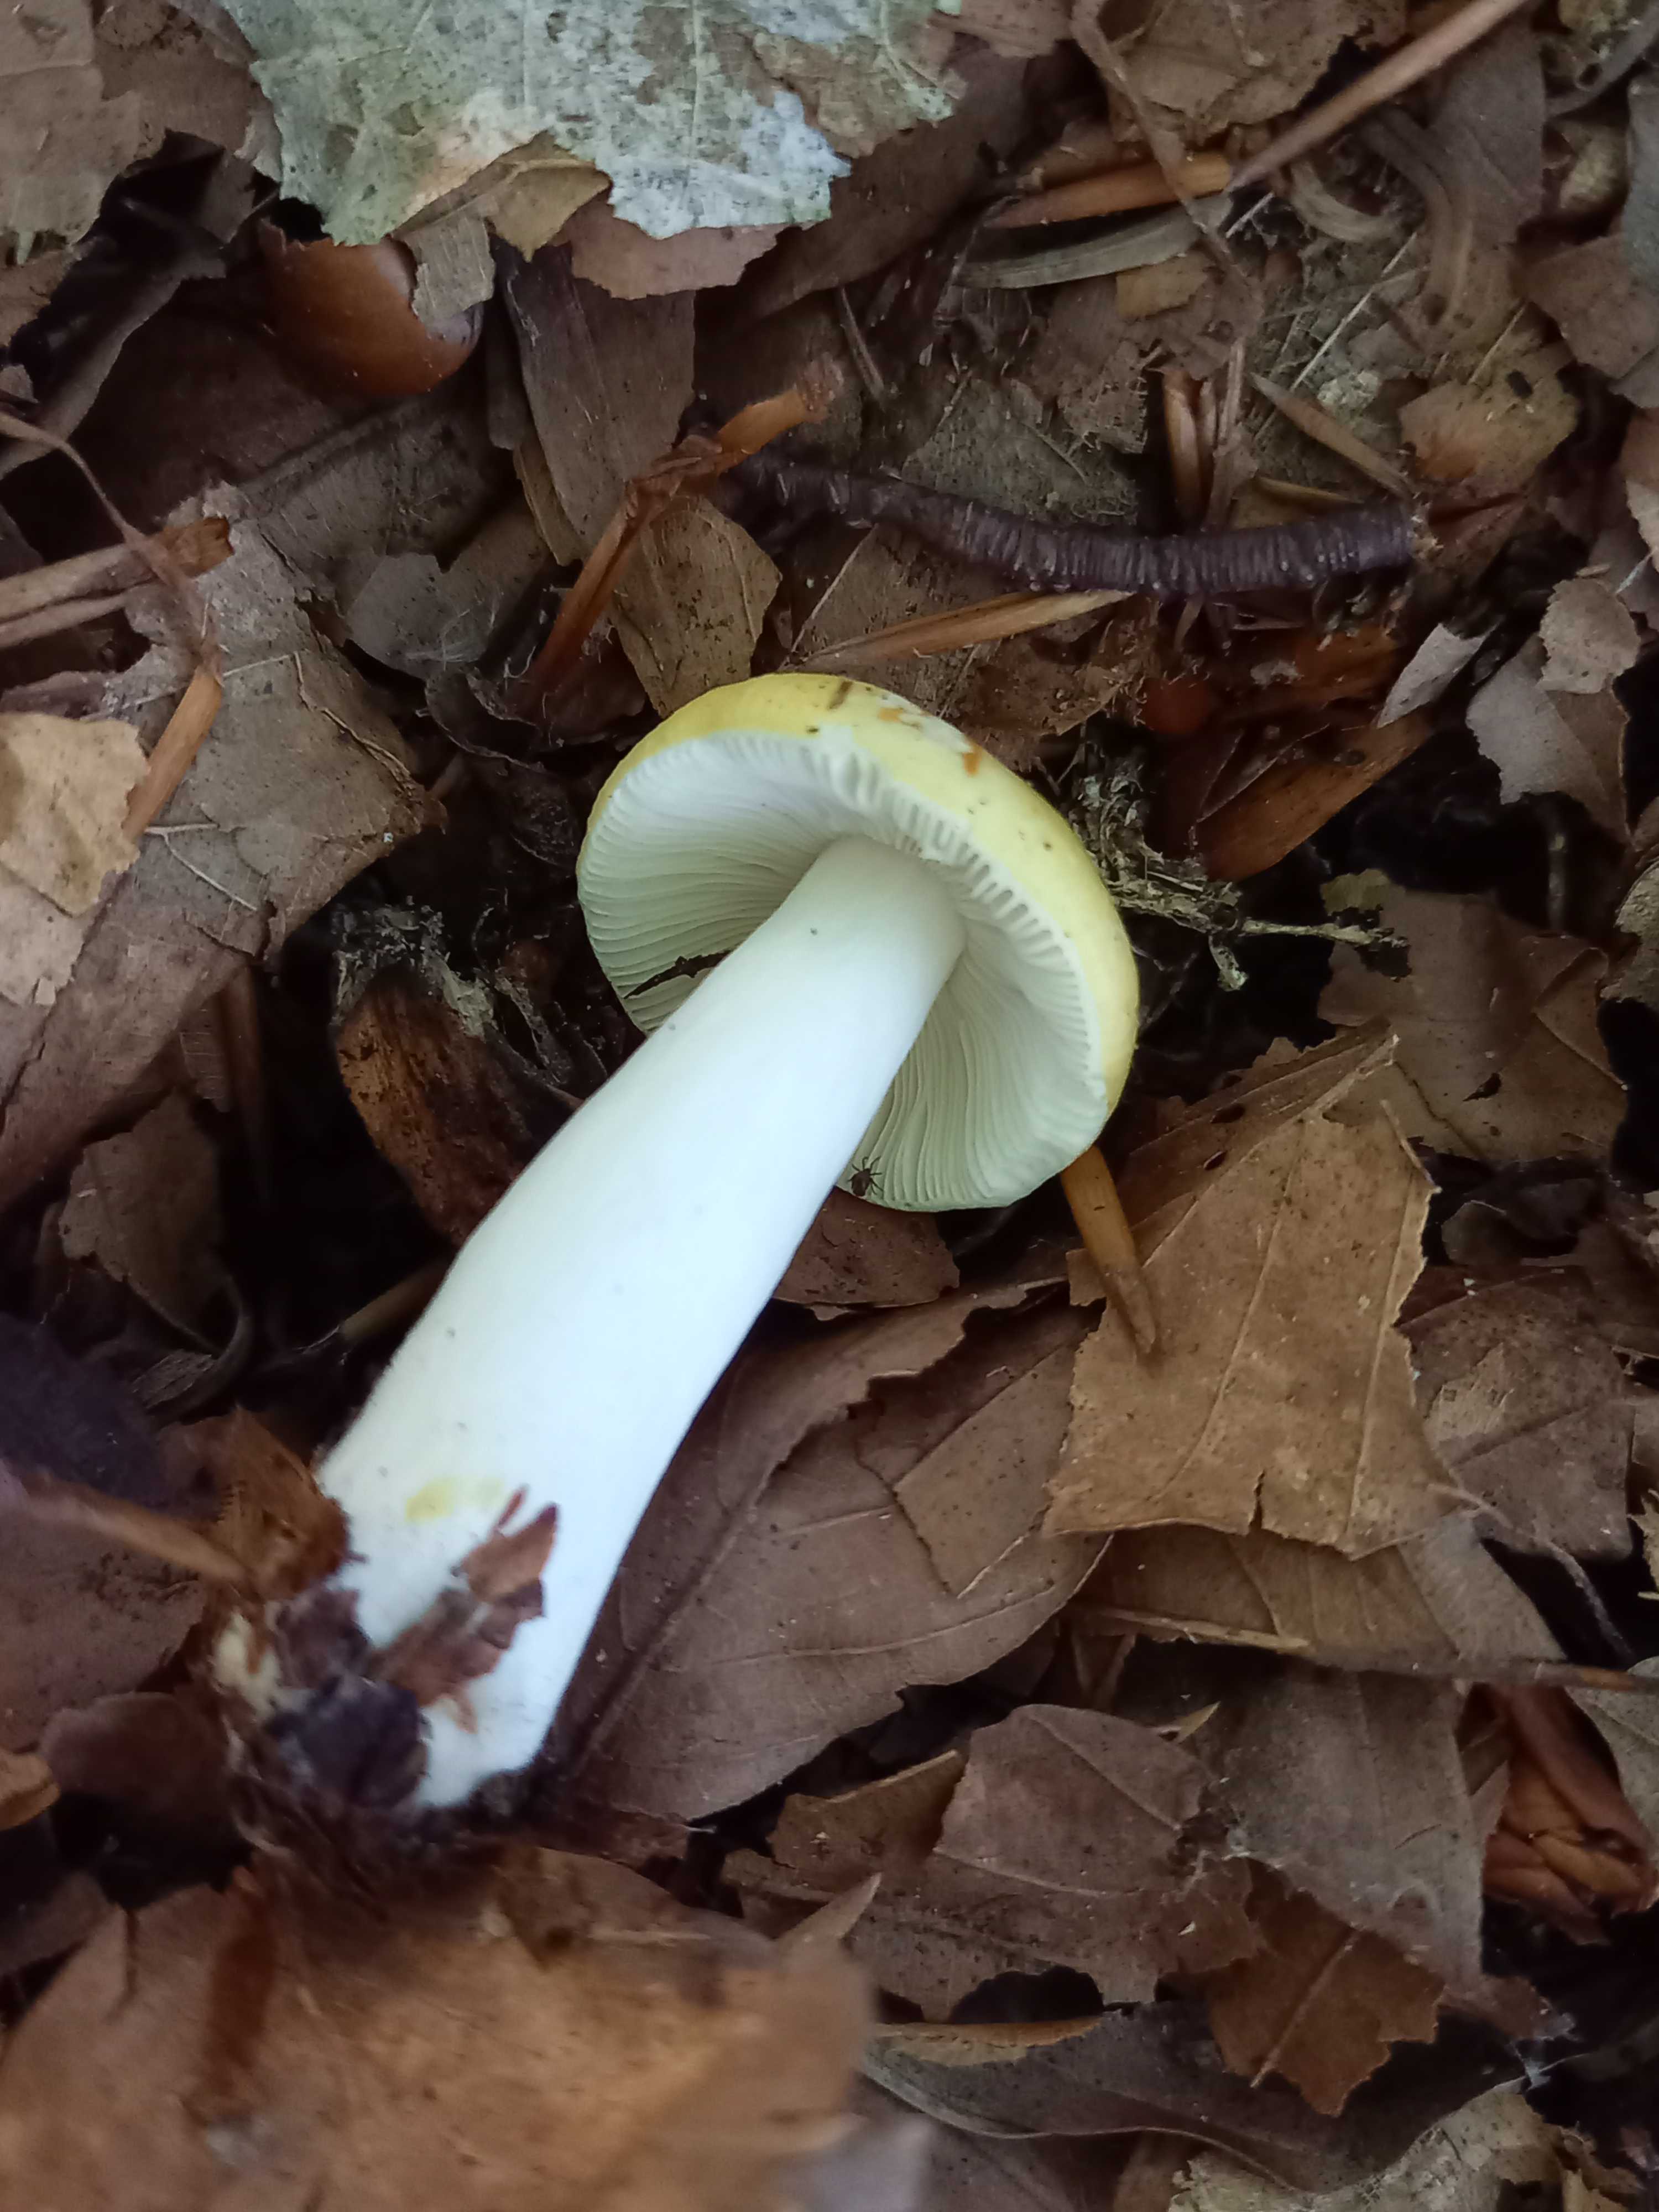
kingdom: Fungi
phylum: Basidiomycota
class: Agaricomycetes
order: Russulales
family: Russulaceae
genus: Russula
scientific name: Russula solaris
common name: sol-skørhat
